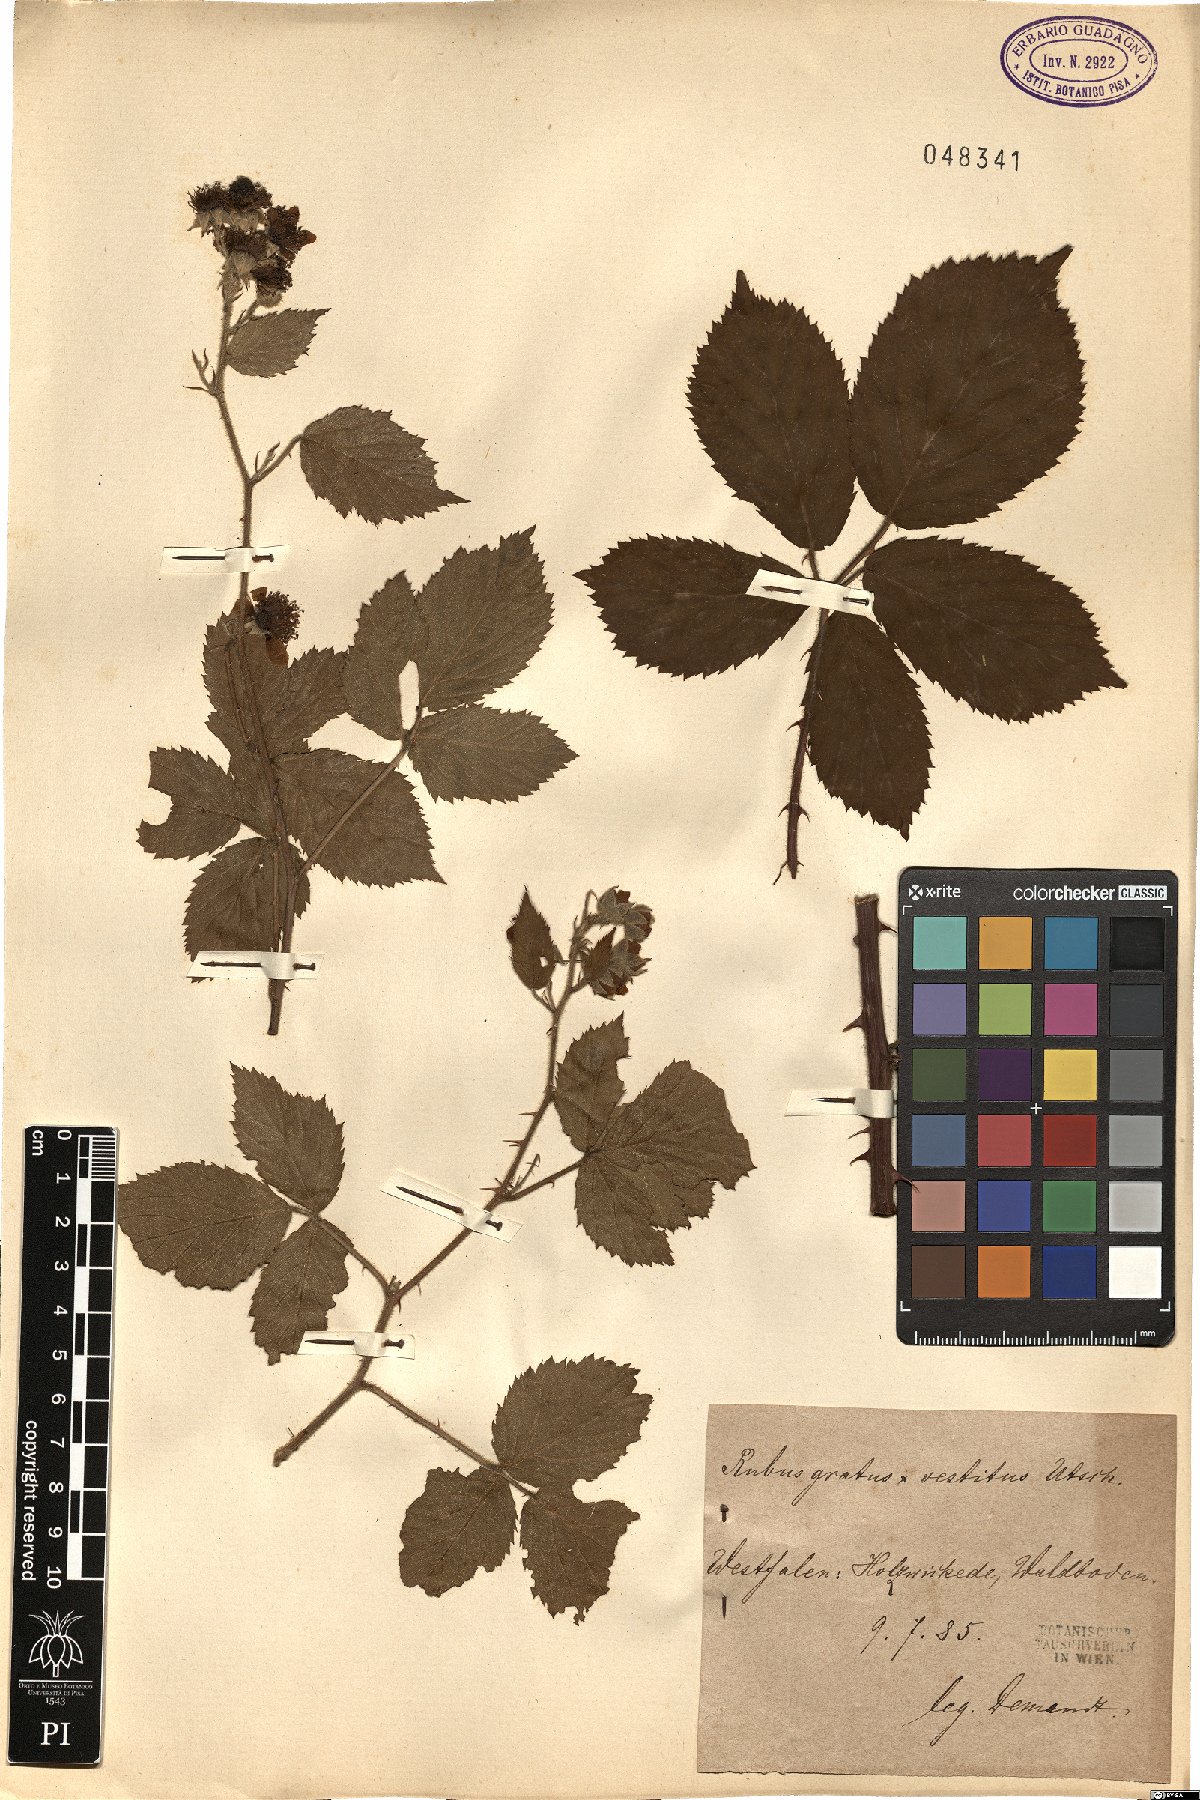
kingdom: Plantae
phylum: Tracheophyta
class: Magnoliopsida
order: Rosales
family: Rosaceae
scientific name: Rosaceae
